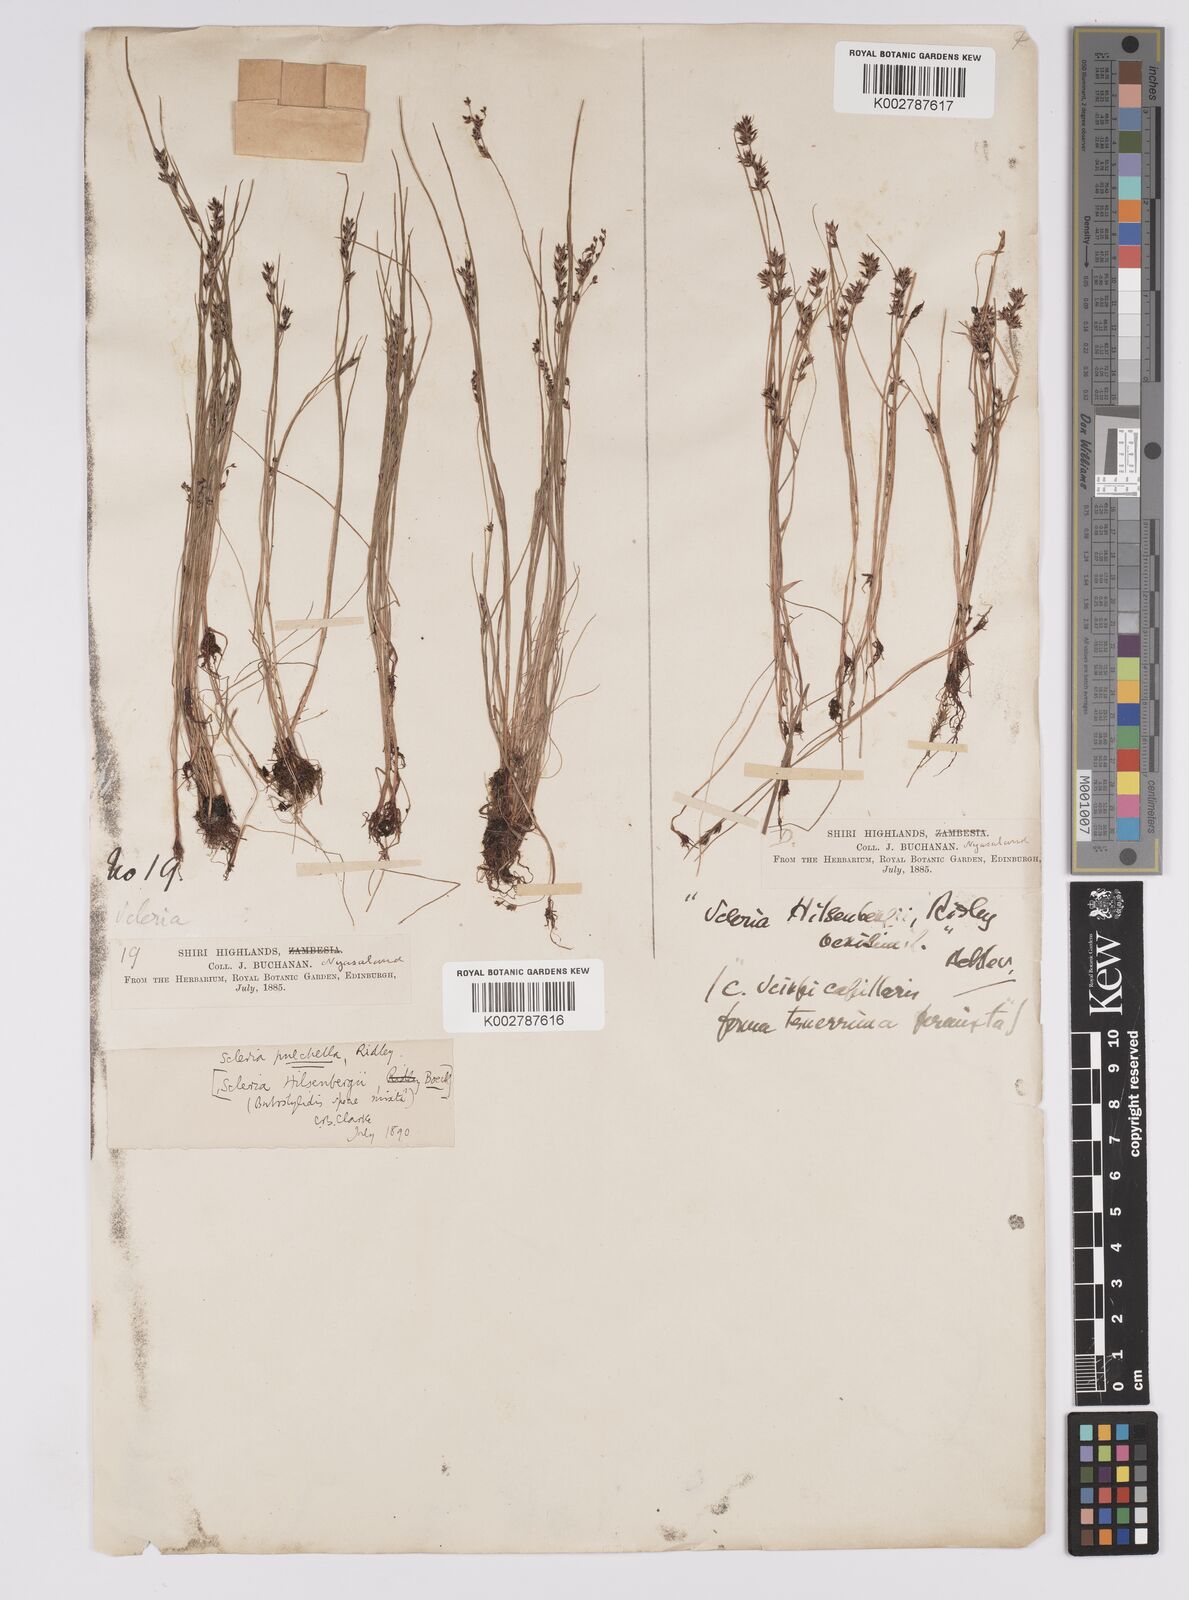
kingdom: Plantae
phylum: Tracheophyta
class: Liliopsida
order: Poales
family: Cyperaceae
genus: Scleria
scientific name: Scleria pulchella
